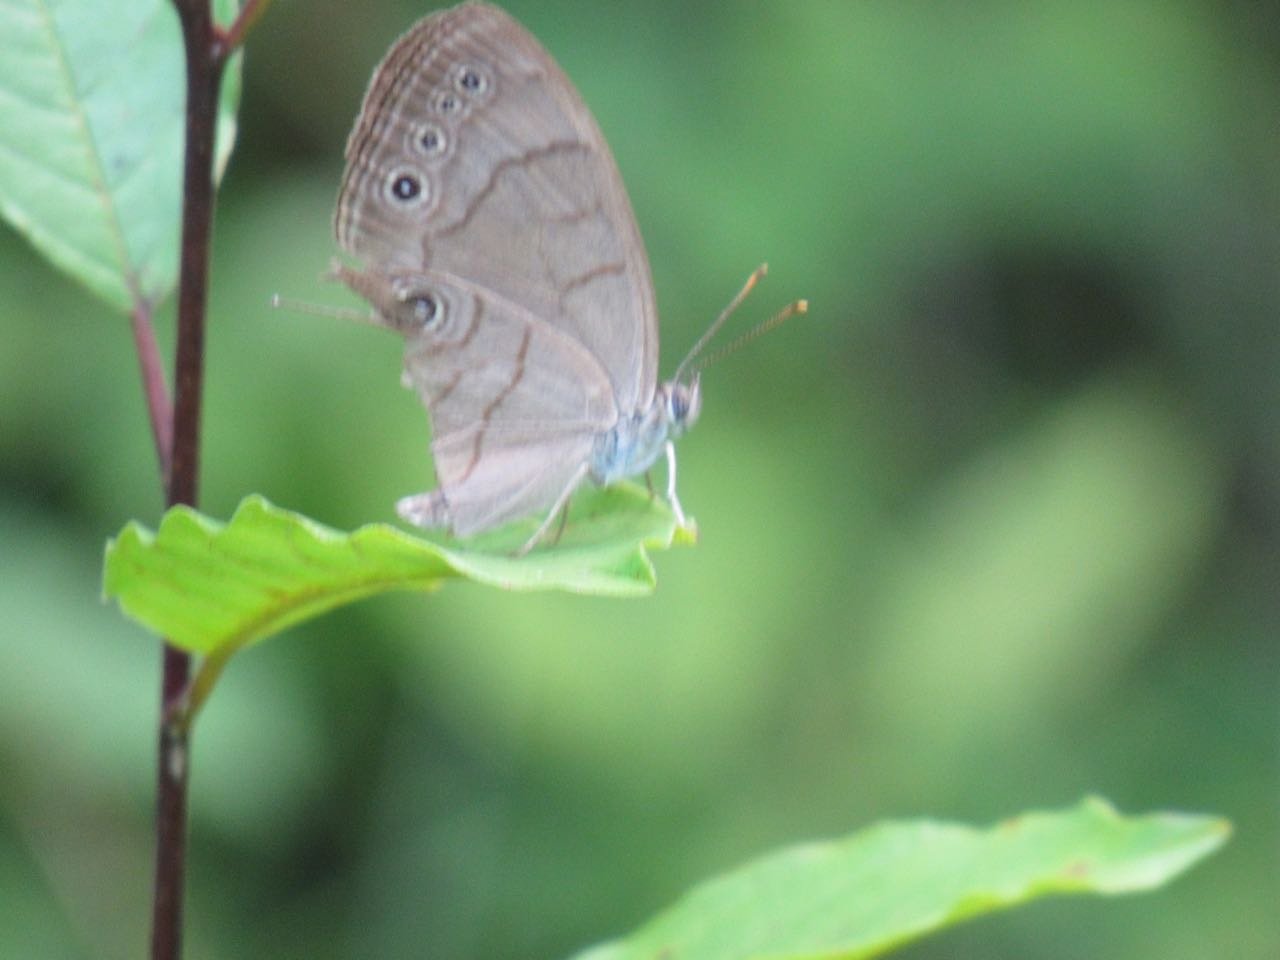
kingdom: Animalia
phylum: Arthropoda
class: Insecta
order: Lepidoptera
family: Nymphalidae
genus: Lethe
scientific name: Lethe eurydice
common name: Appalachian Eyed Brown
